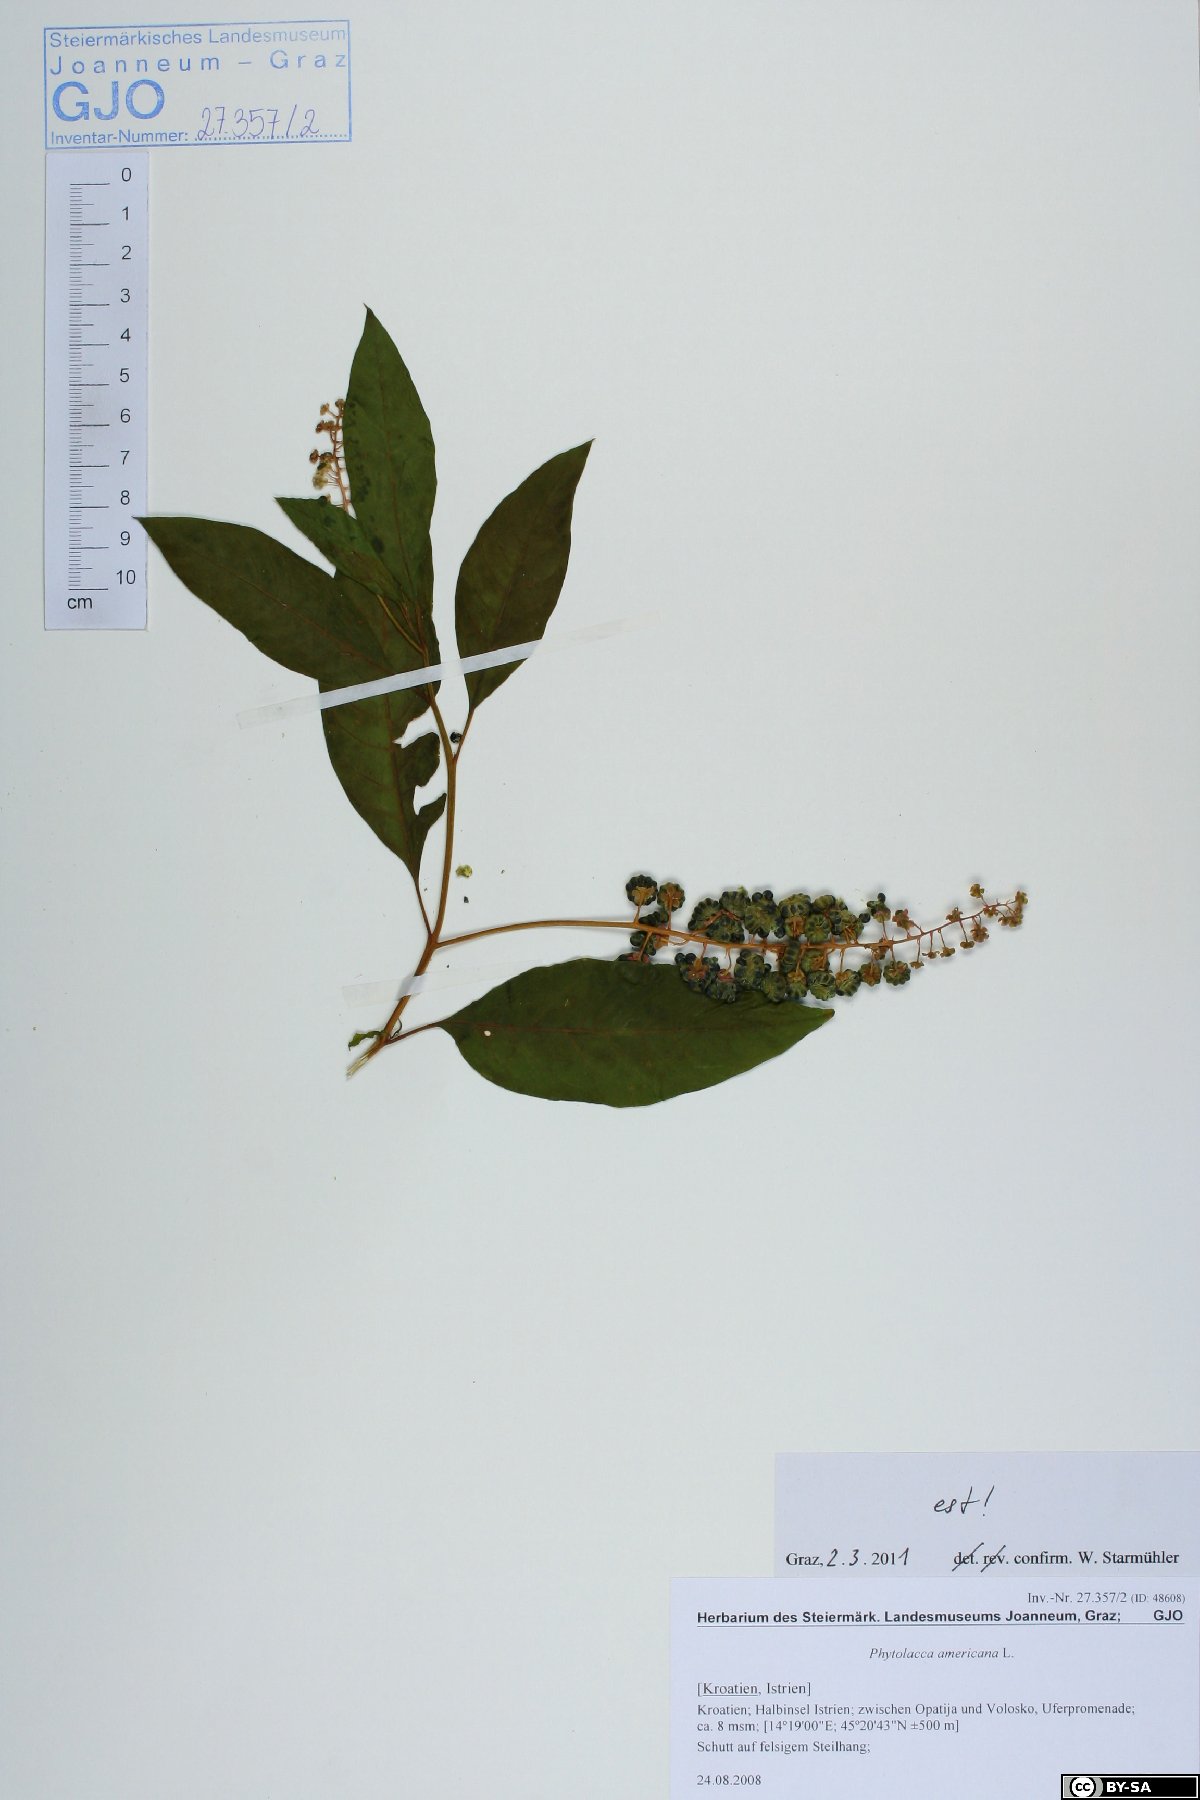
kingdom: Plantae
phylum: Tracheophyta
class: Magnoliopsida
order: Caryophyllales
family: Phytolaccaceae
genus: Phytolacca
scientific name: Phytolacca americana
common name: American pokeweed
